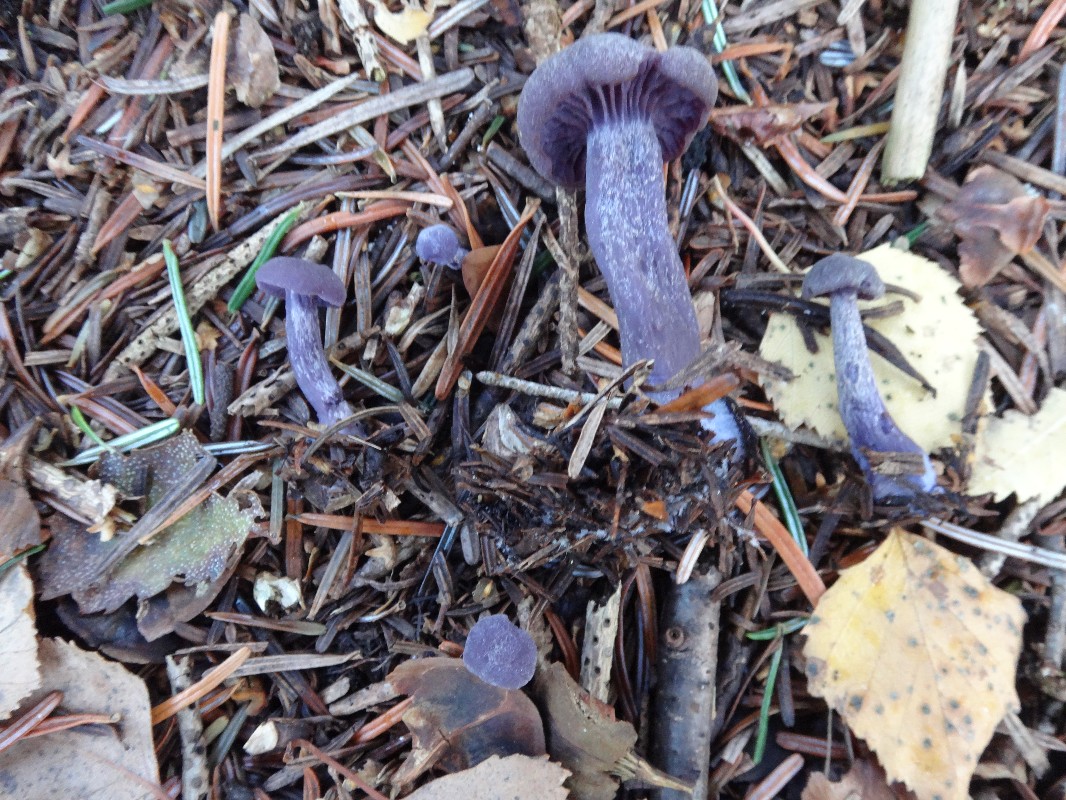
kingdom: Fungi
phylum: Basidiomycota
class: Agaricomycetes
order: Agaricales
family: Hydnangiaceae
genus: Laccaria
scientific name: Laccaria amethystina
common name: violet ametysthat
